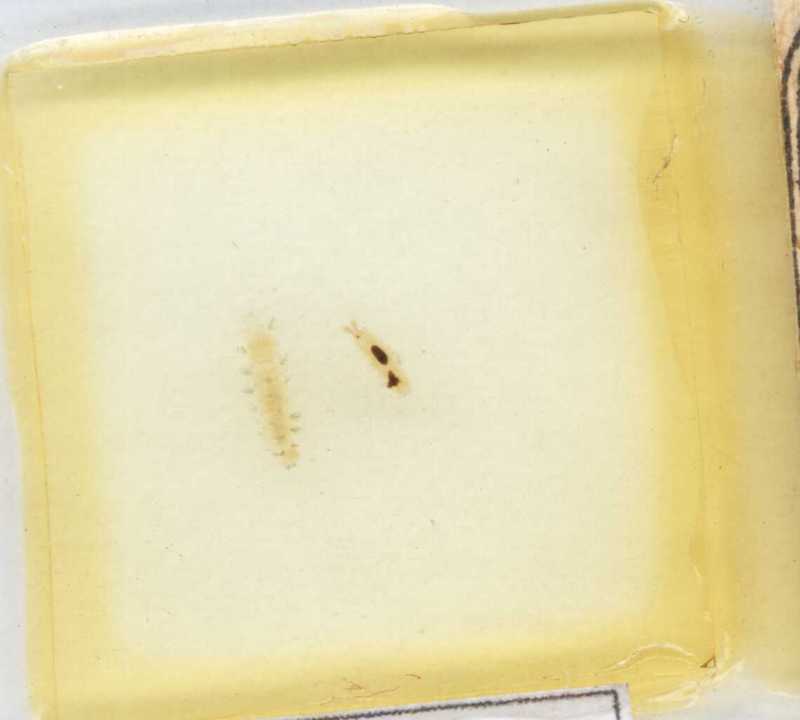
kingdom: Animalia
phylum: Arthropoda
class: Diplopoda
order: Polyxenida
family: Lophoproctidae
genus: Lophoproctus
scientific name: Lophoproctus lucidus
